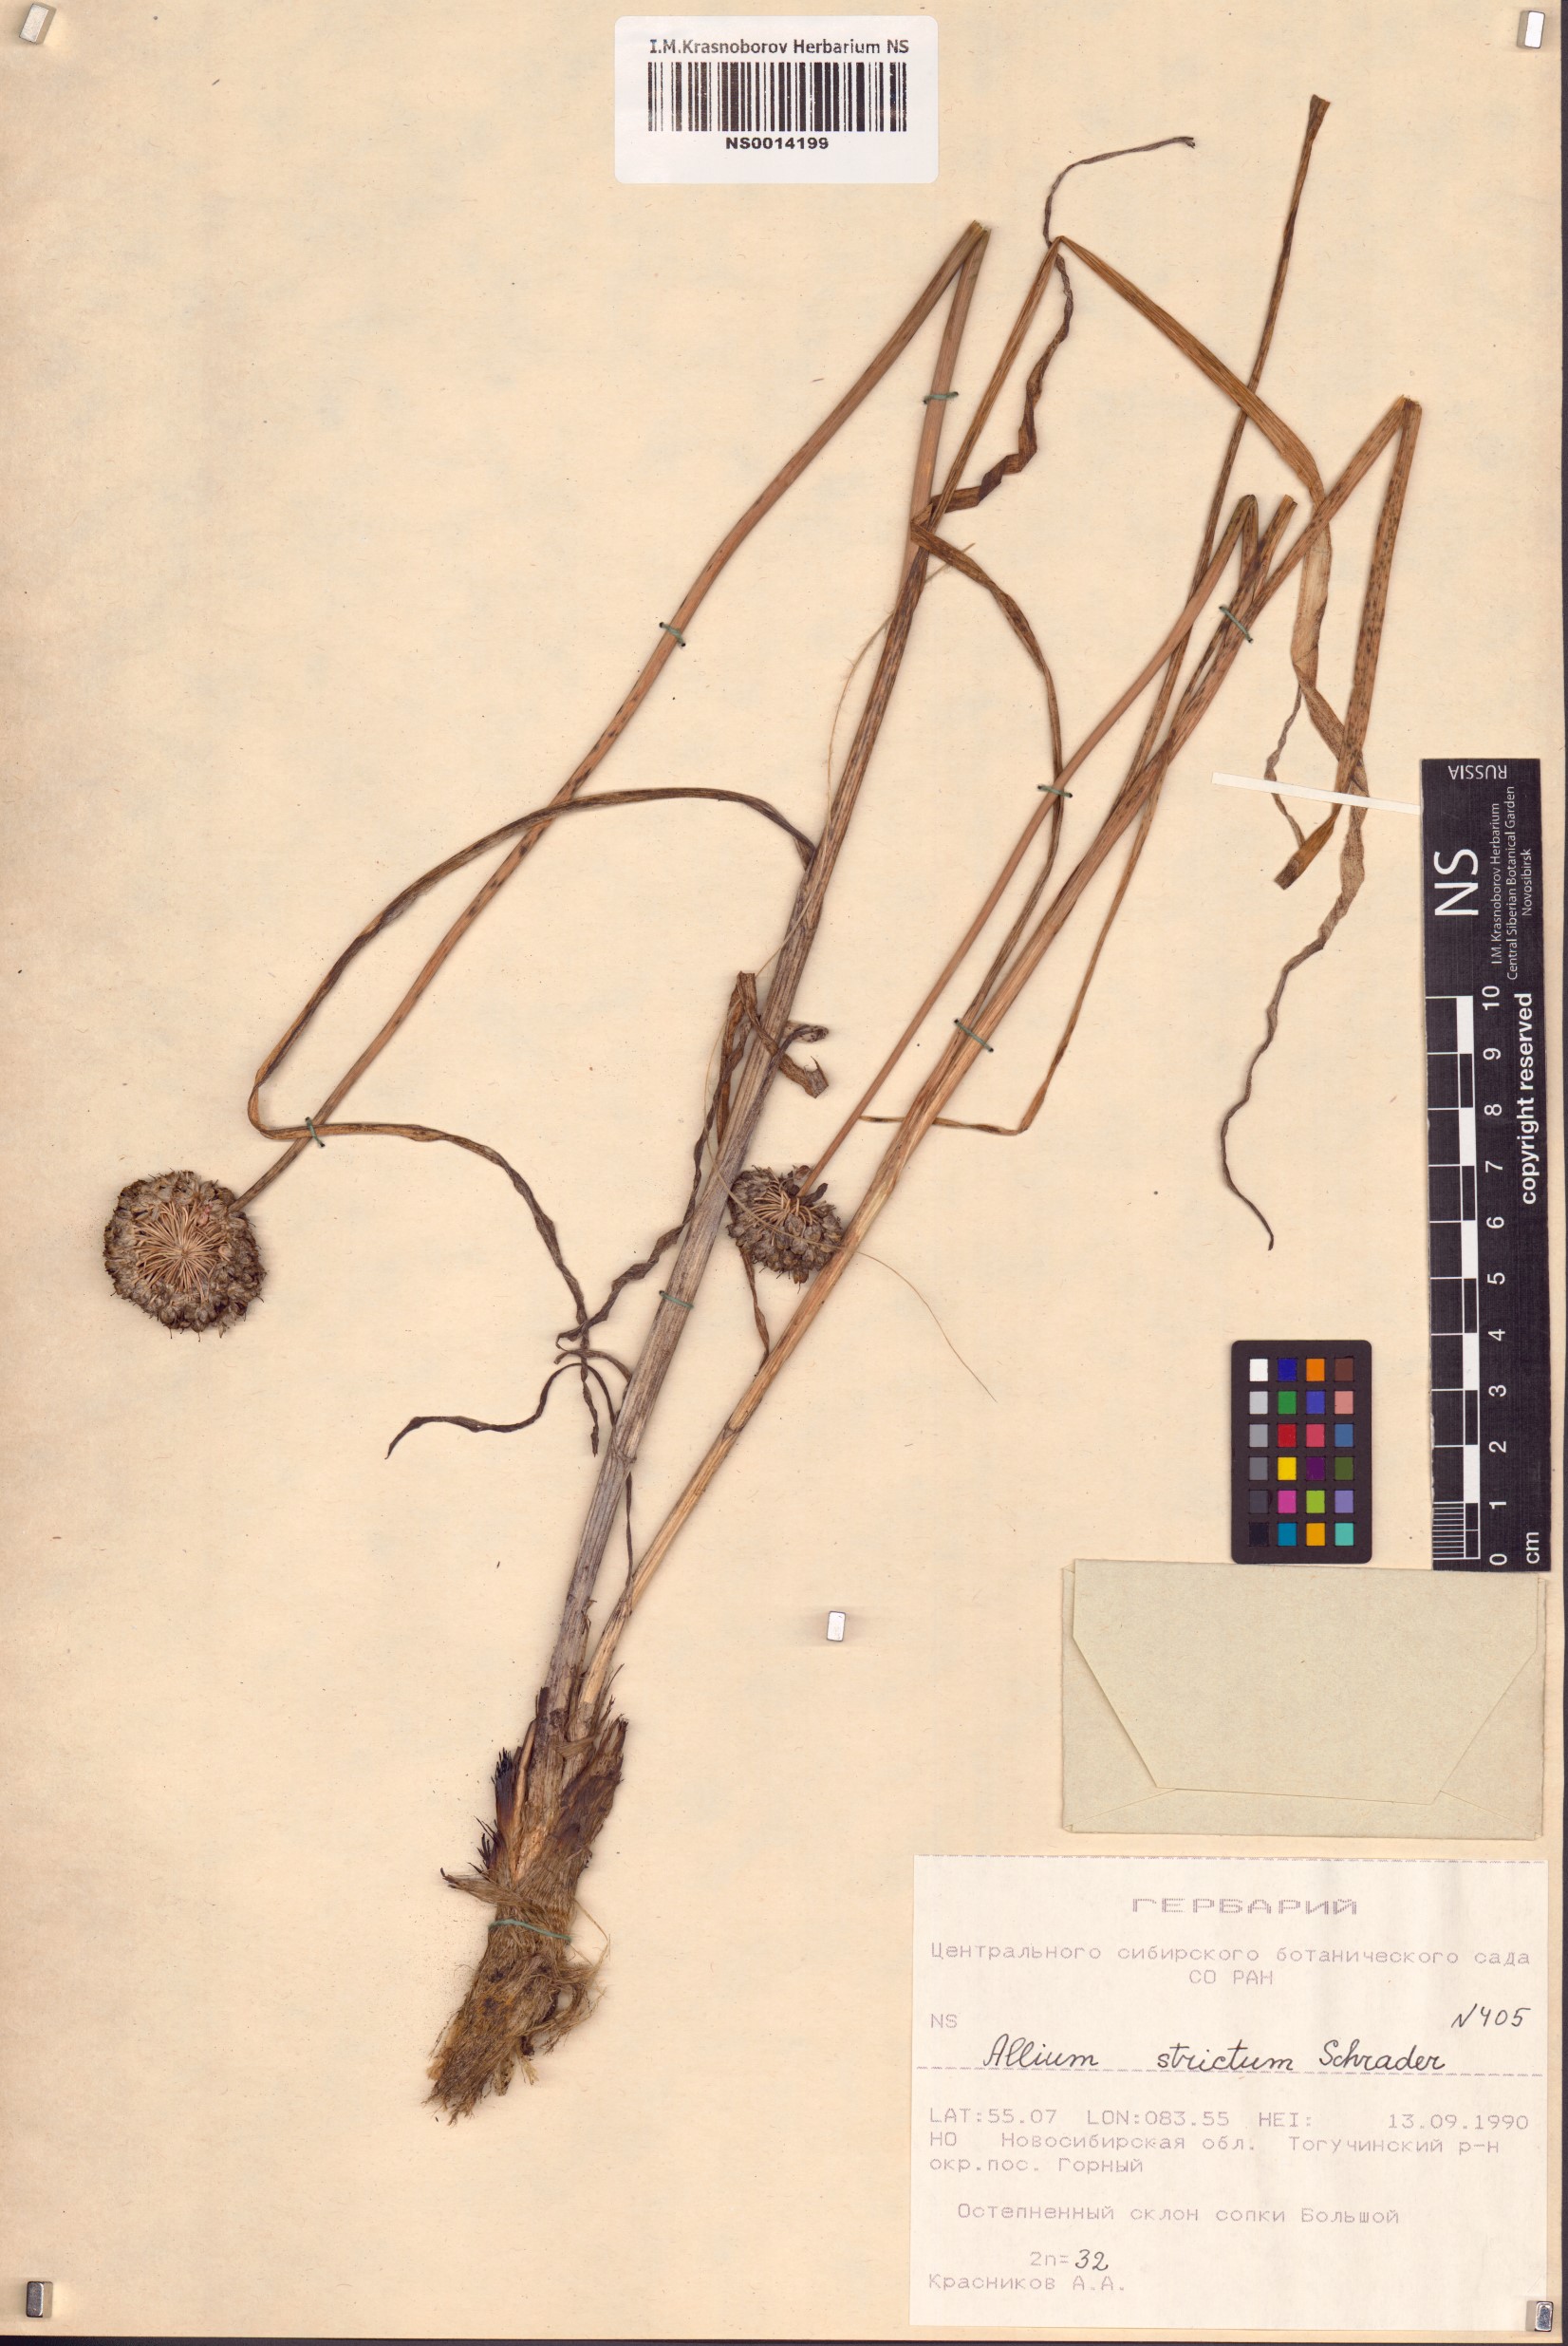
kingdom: Plantae
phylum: Tracheophyta
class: Liliopsida
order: Asparagales
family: Amaryllidaceae
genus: Allium
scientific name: Allium strictum
